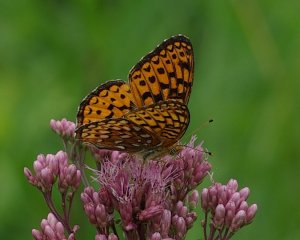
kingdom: Animalia
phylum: Arthropoda
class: Insecta
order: Lepidoptera
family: Nymphalidae
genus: Speyeria
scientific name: Speyeria atlantis
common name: Atlantis Fritillary
